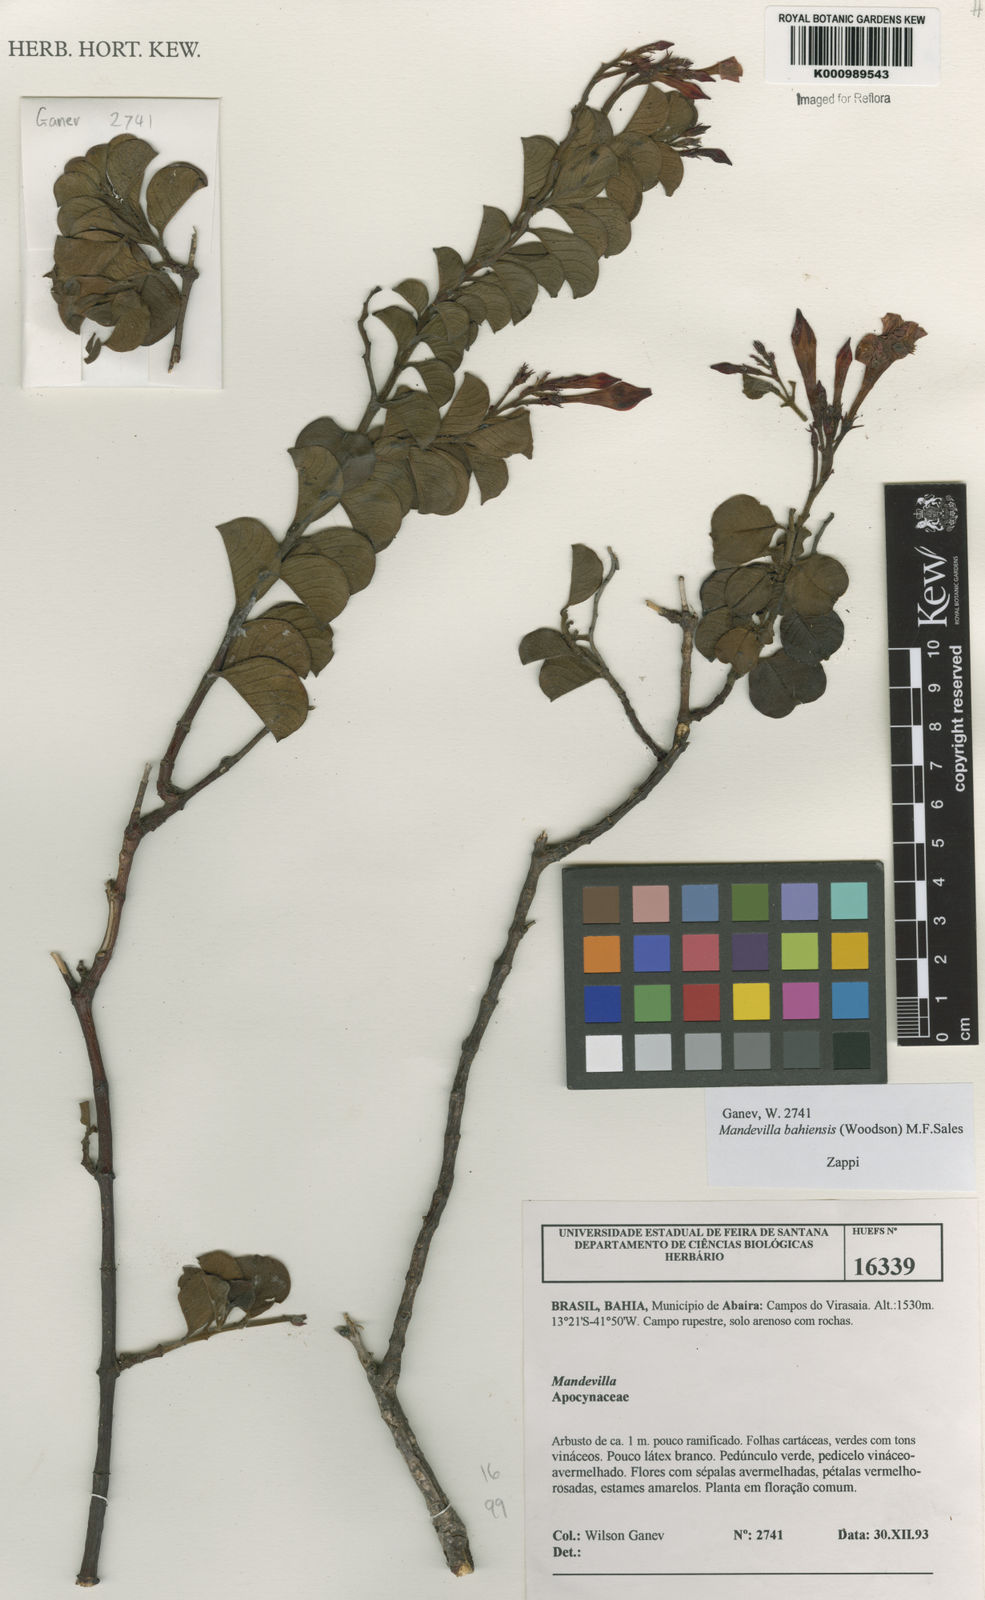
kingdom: Plantae
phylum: Tracheophyta
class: Magnoliopsida
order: Gentianales
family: Apocynaceae
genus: Mandevilla
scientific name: Mandevilla bahiensis
